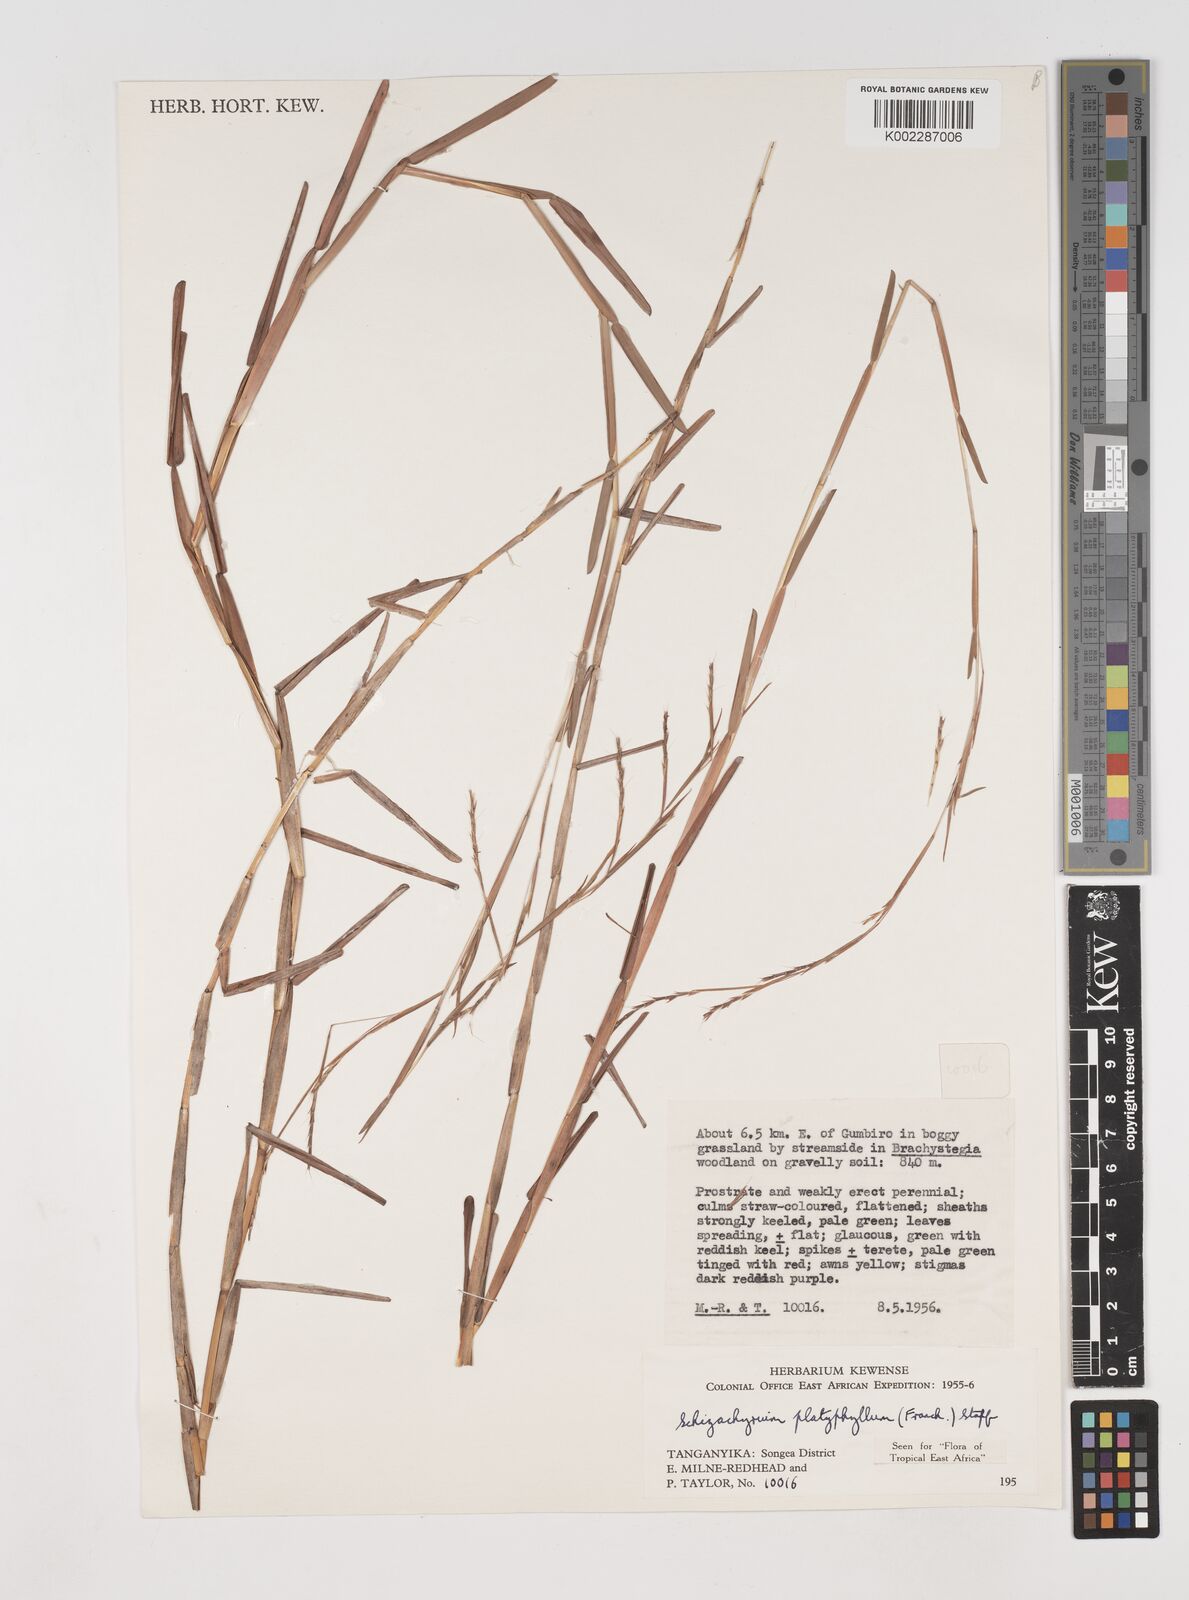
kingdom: Plantae
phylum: Tracheophyta
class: Liliopsida
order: Poales
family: Poaceae
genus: Schizachyrium
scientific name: Schizachyrium platyphyllum
